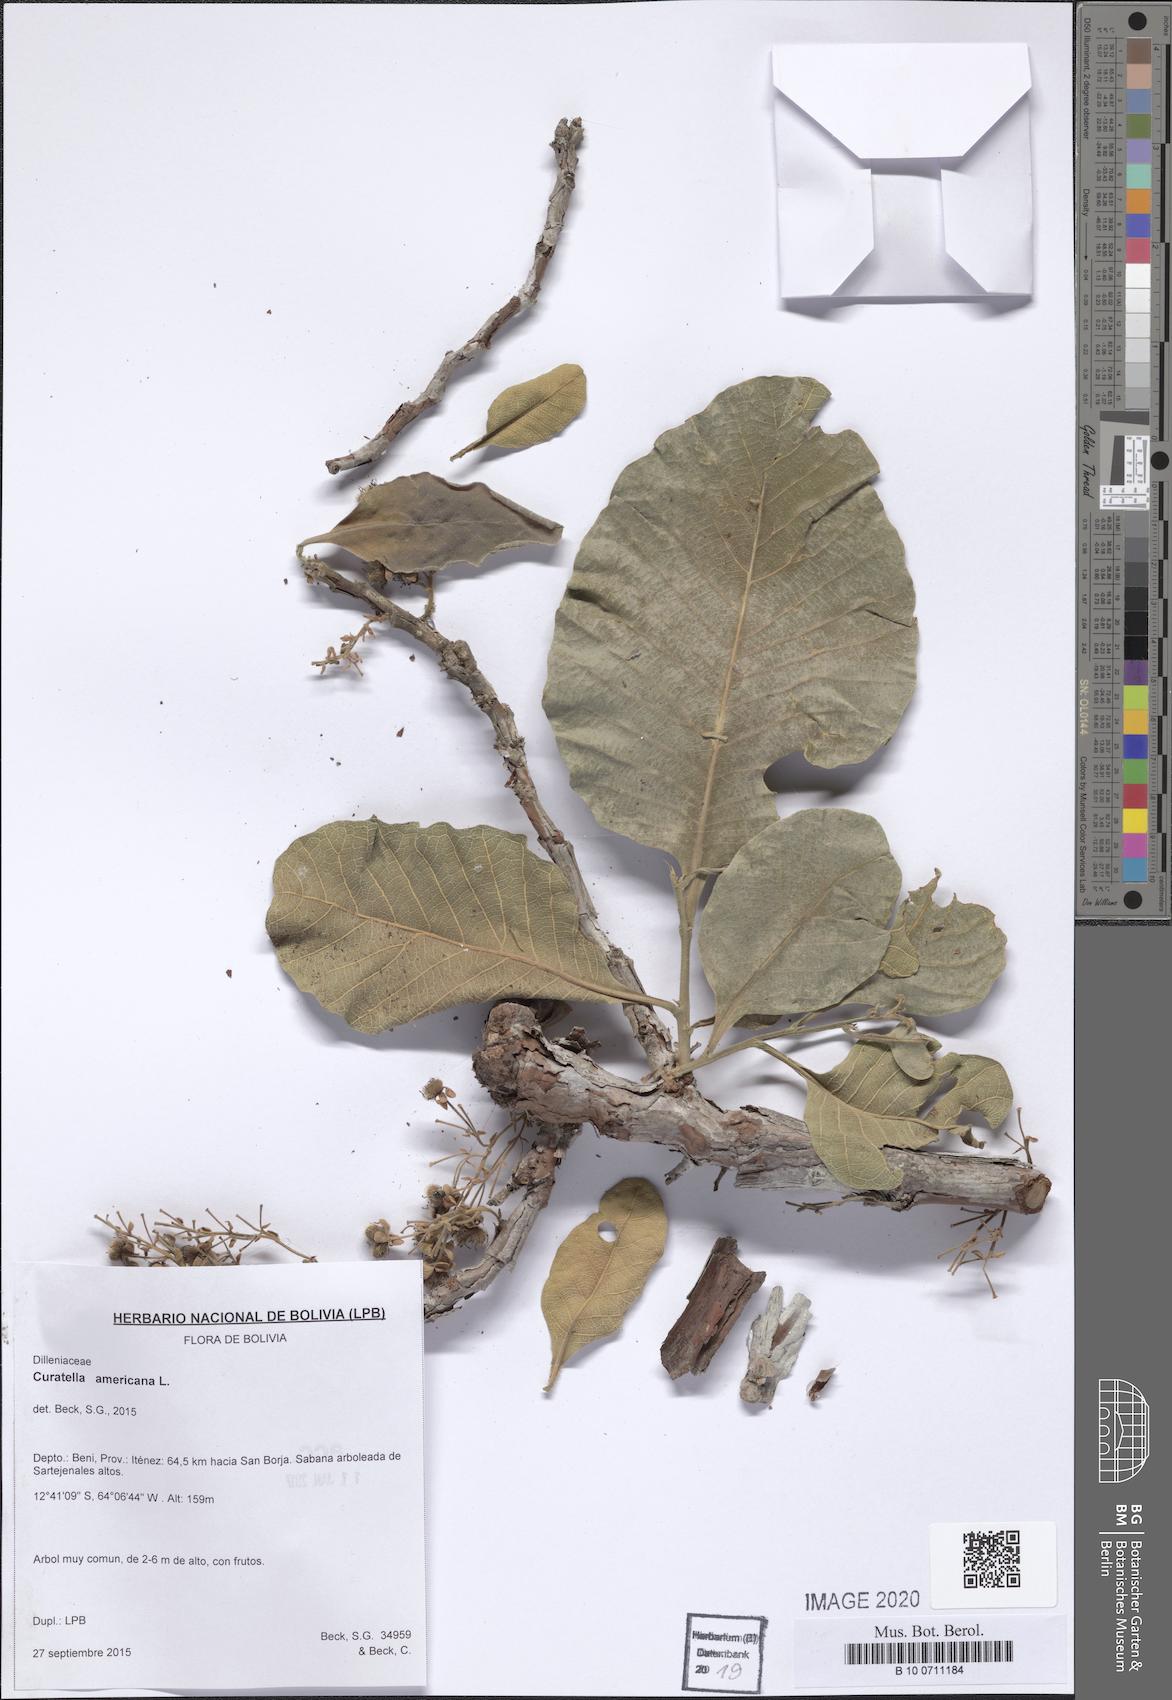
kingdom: Plantae
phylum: Tracheophyta
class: Magnoliopsida
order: Dilleniales
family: Dilleniaceae
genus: Curatella
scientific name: Curatella americana
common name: Sandpaper tree
